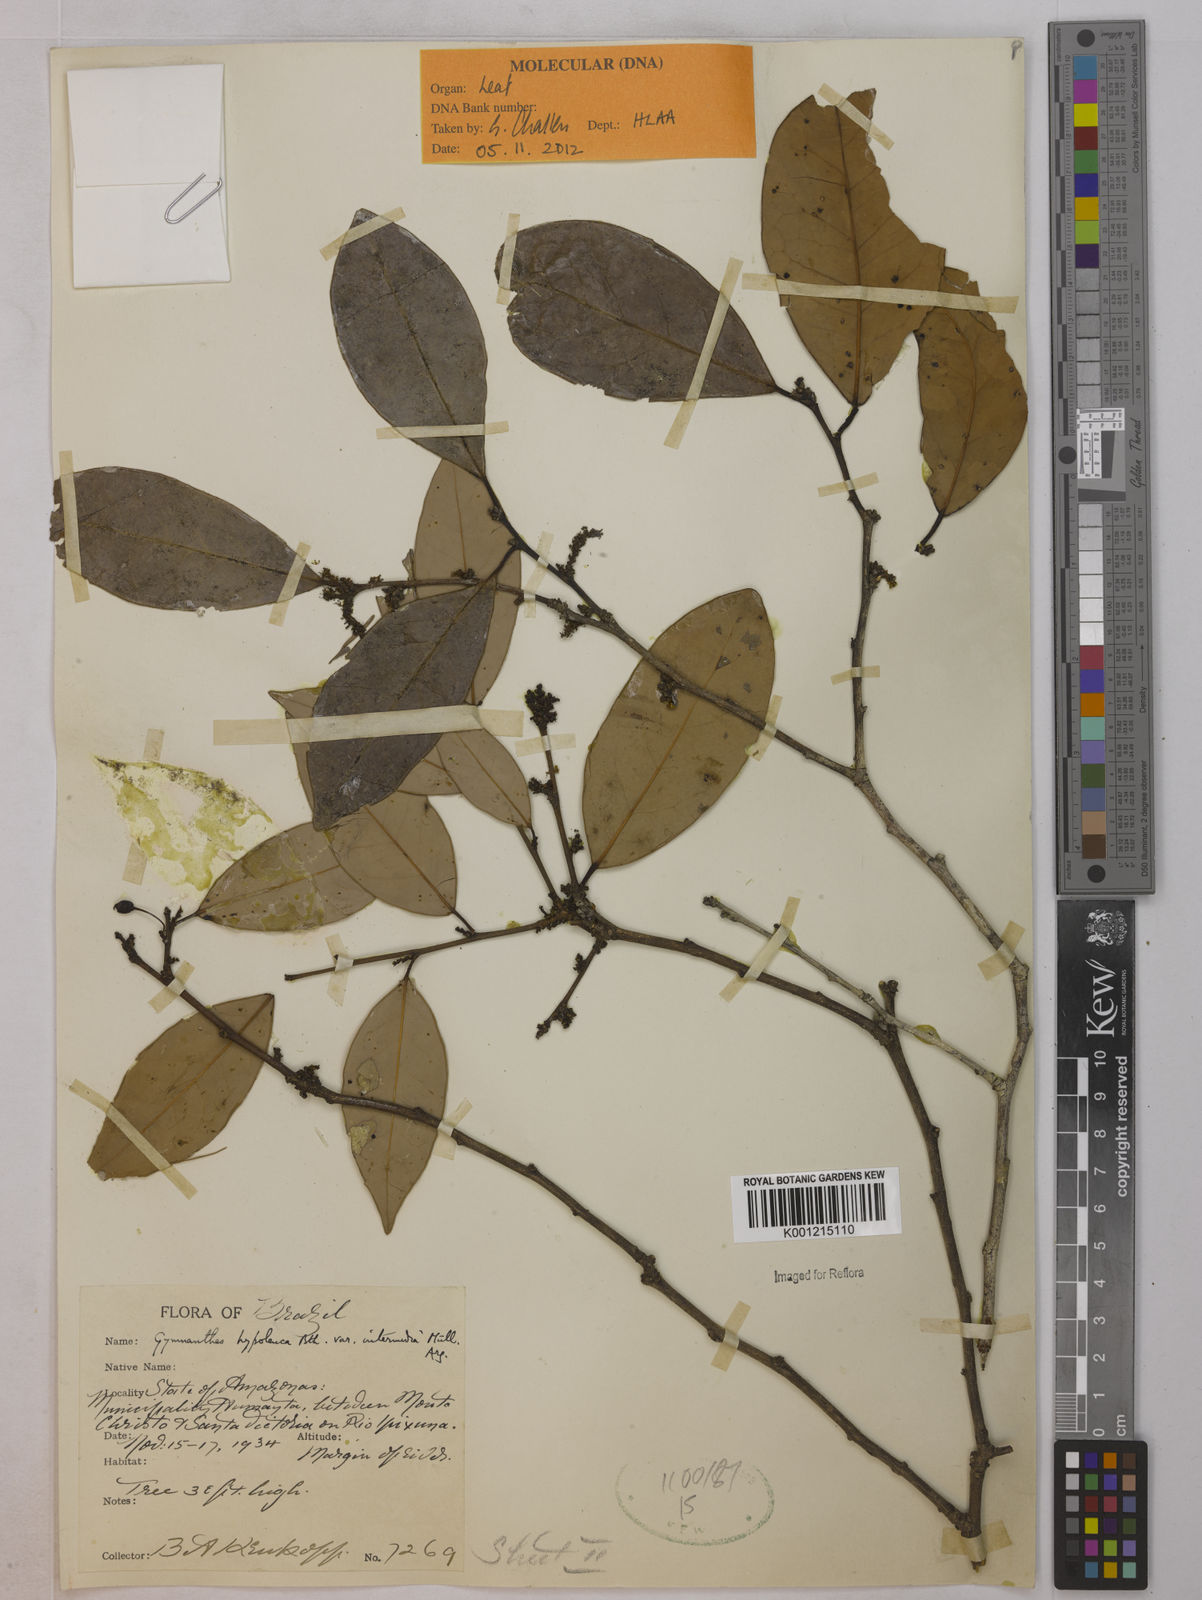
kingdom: Plantae
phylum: Tracheophyta
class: Magnoliopsida
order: Malpighiales
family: Euphorbiaceae
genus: Gymnanthes
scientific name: Gymnanthes hypoleuca
